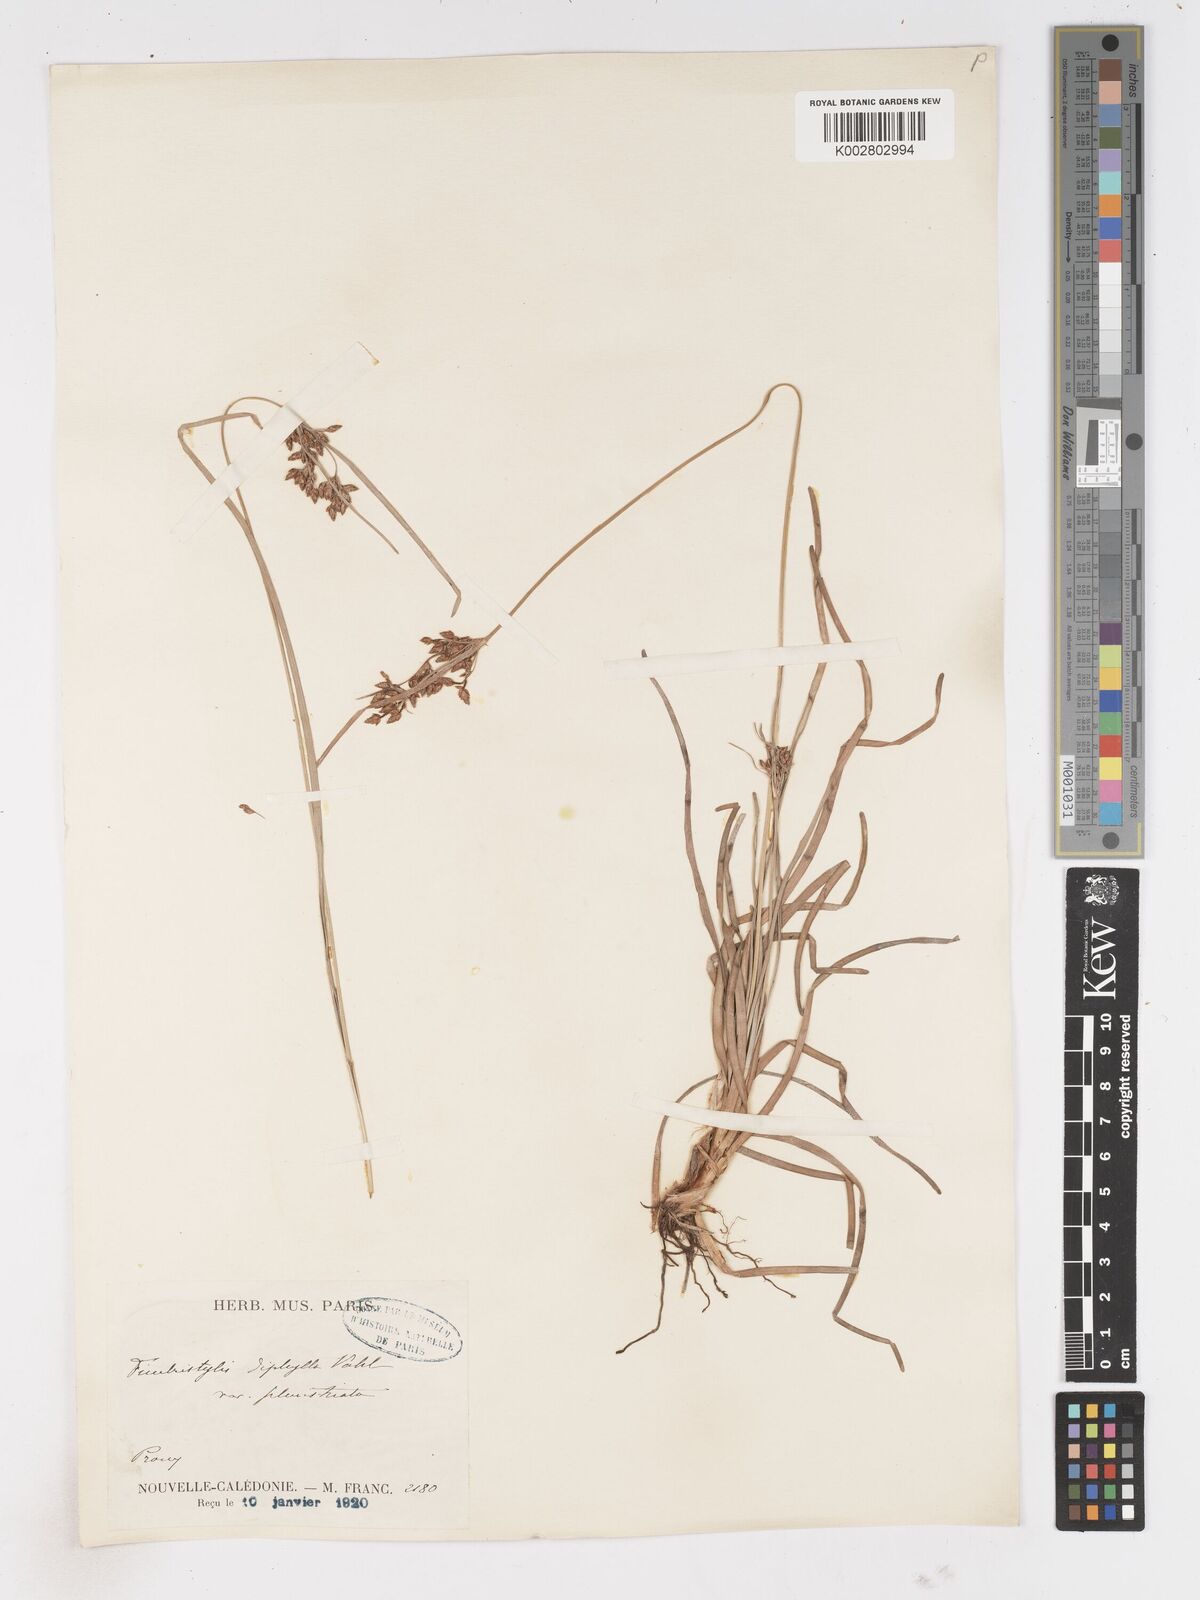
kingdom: Plantae
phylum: Tracheophyta
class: Liliopsida
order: Poales
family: Cyperaceae
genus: Fimbristylis
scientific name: Fimbristylis dichotoma
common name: Forked fimbry
